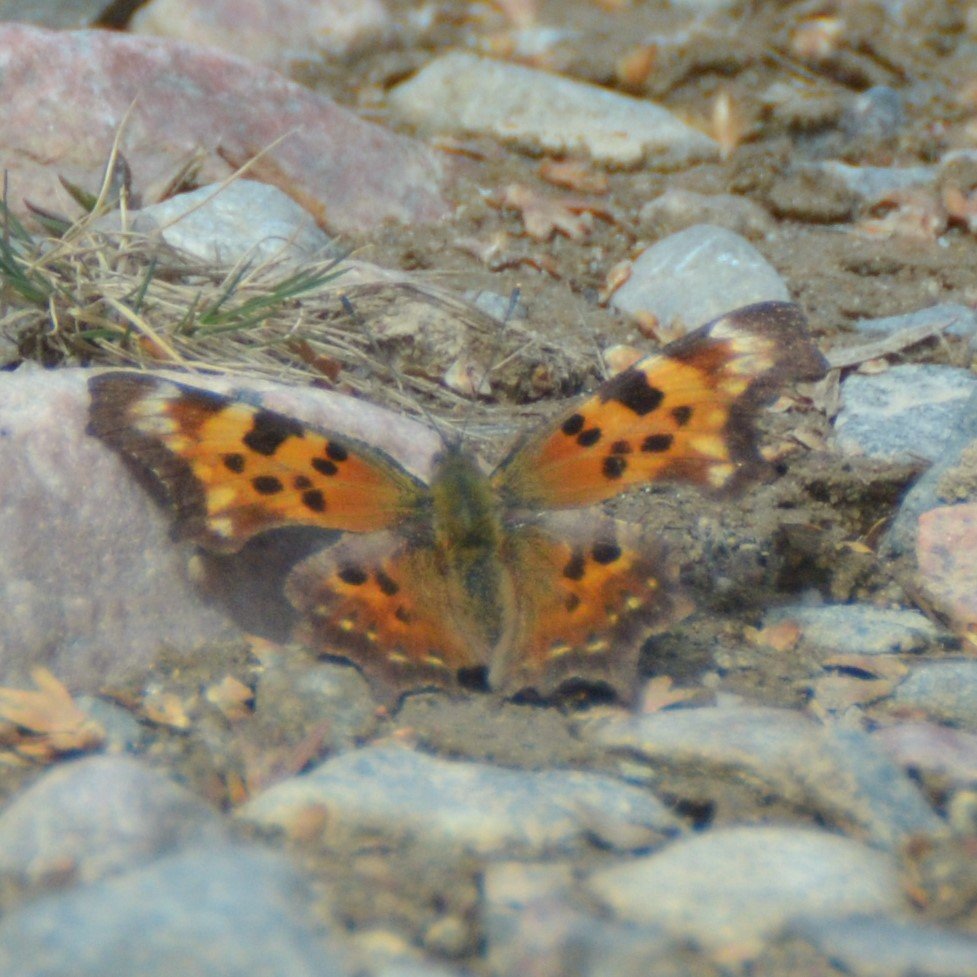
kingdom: Animalia
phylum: Arthropoda
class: Insecta
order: Lepidoptera
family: Nymphalidae
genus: Polygonia
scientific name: Polygonia faunus
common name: Green Comma
